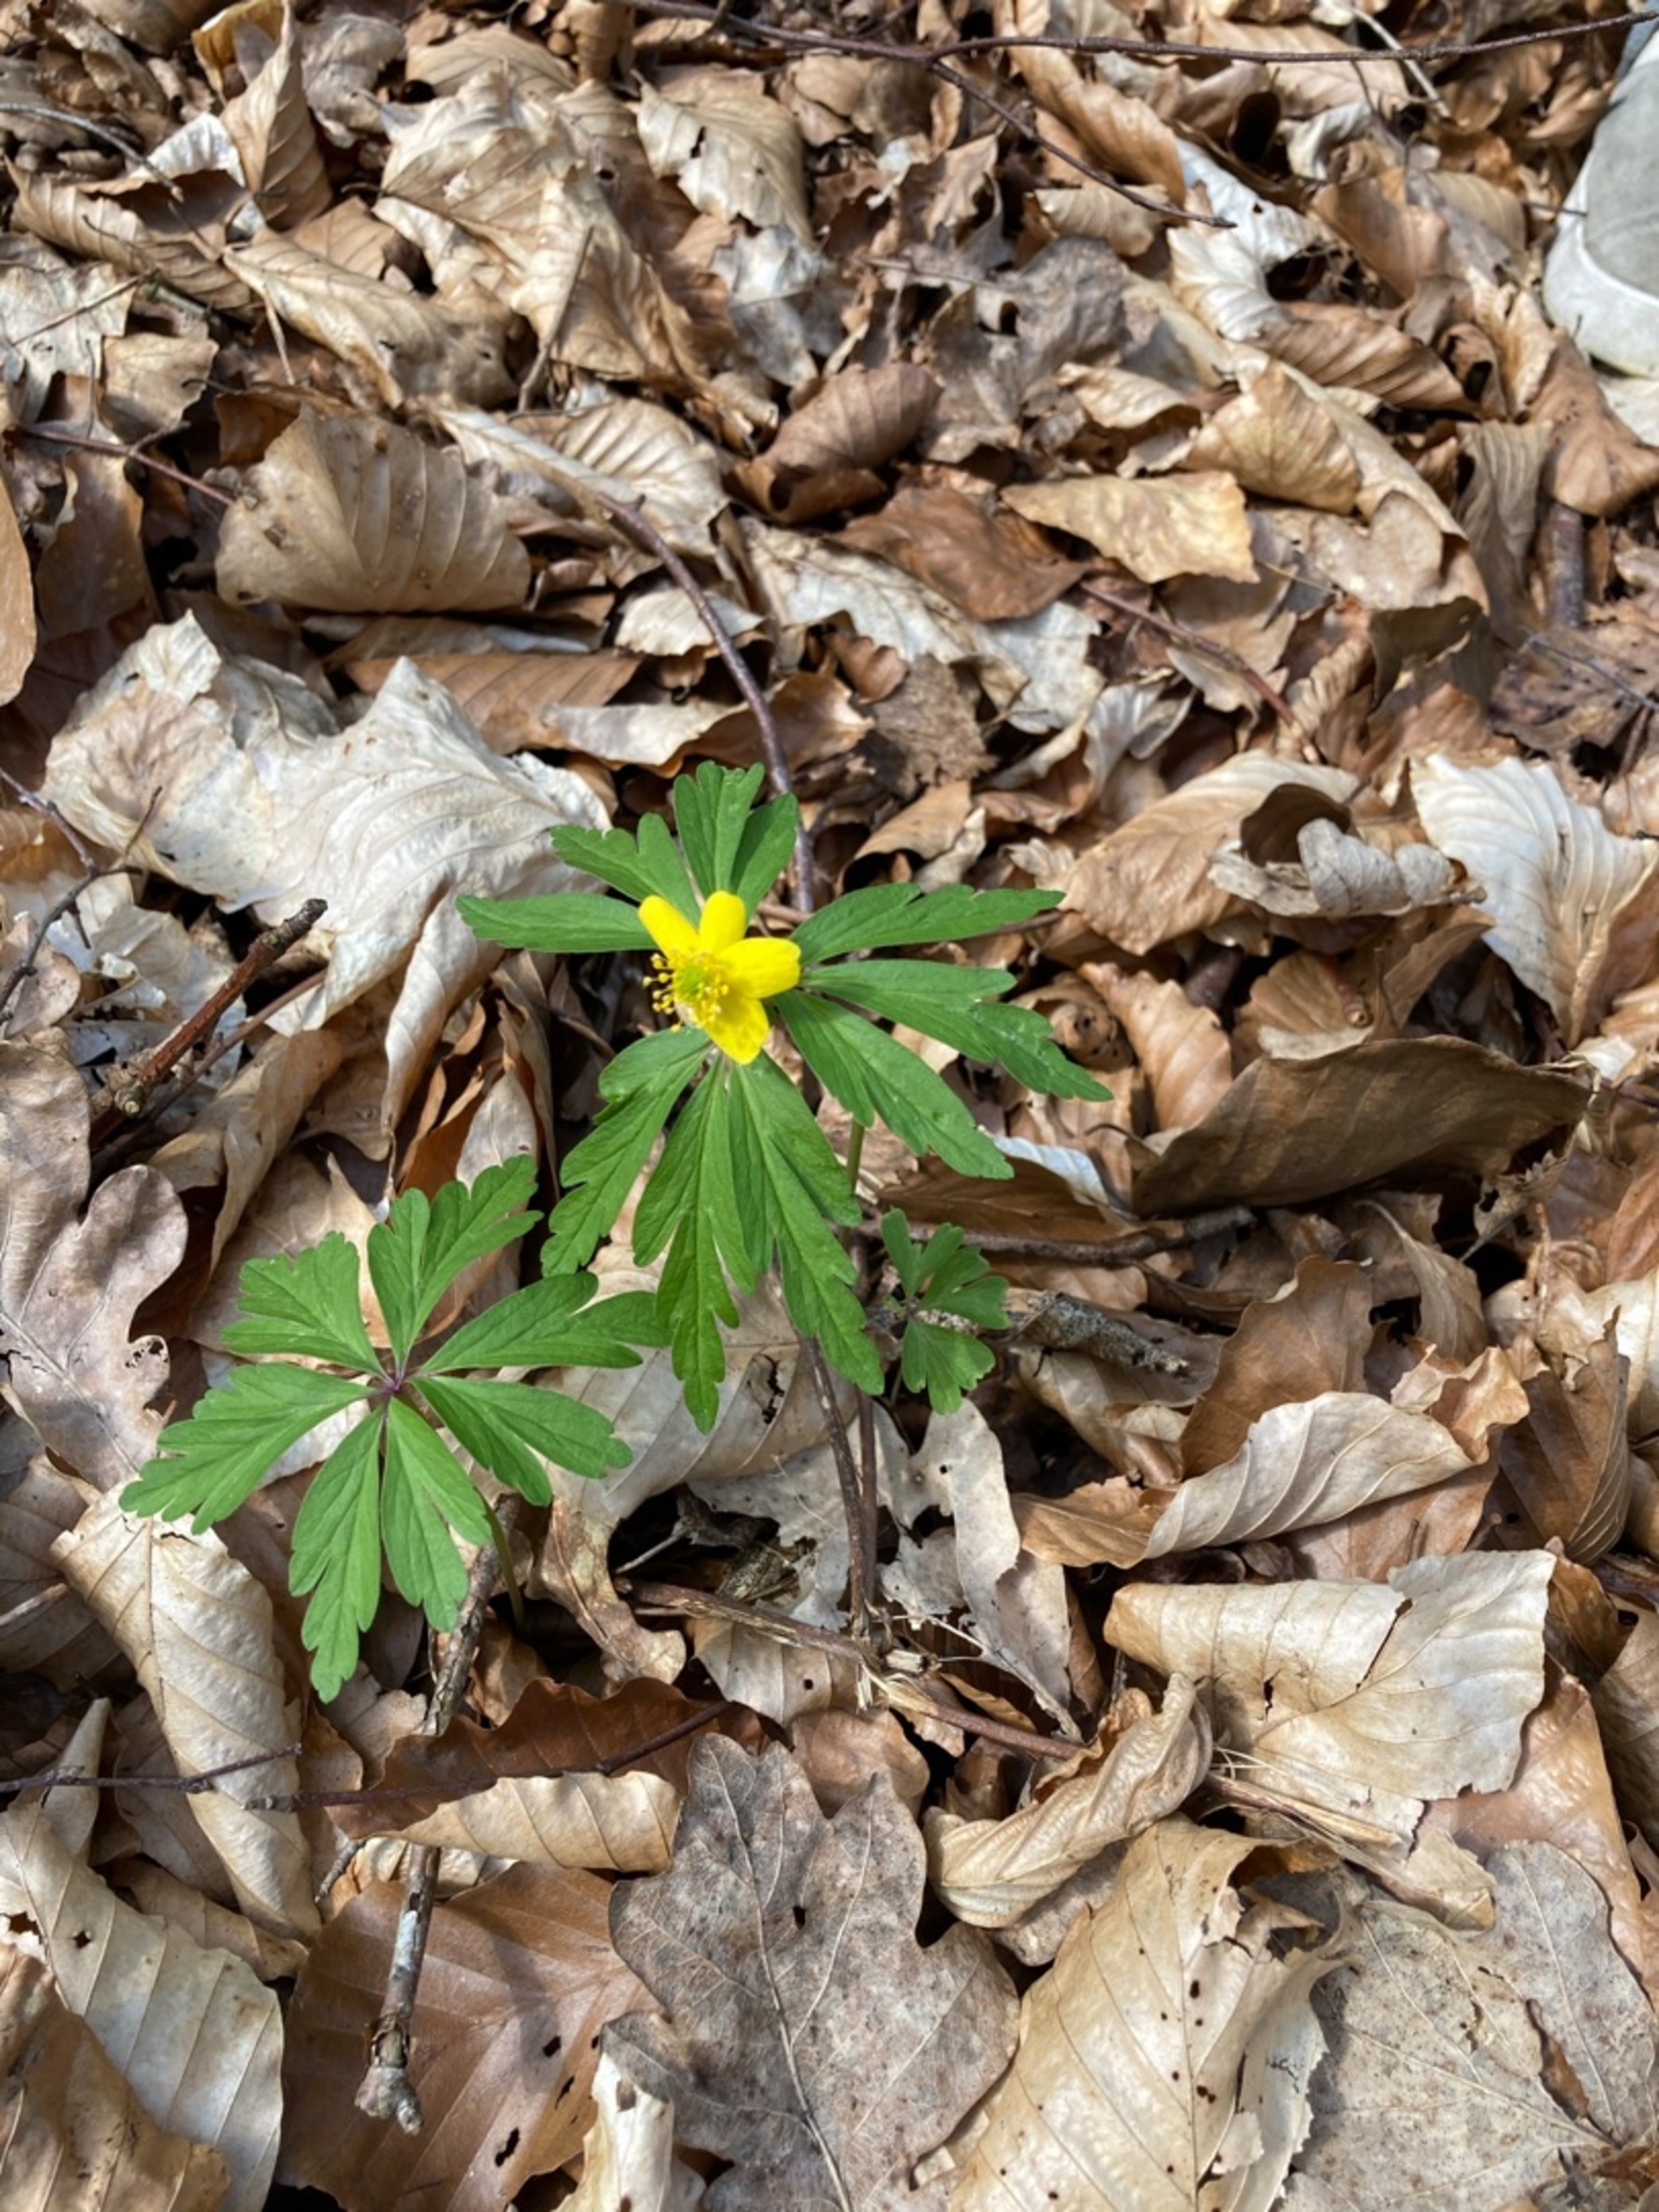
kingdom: Plantae
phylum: Tracheophyta
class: Magnoliopsida
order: Ranunculales
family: Ranunculaceae
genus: Anemone
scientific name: Anemone ranunculoides
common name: Gul anemone
